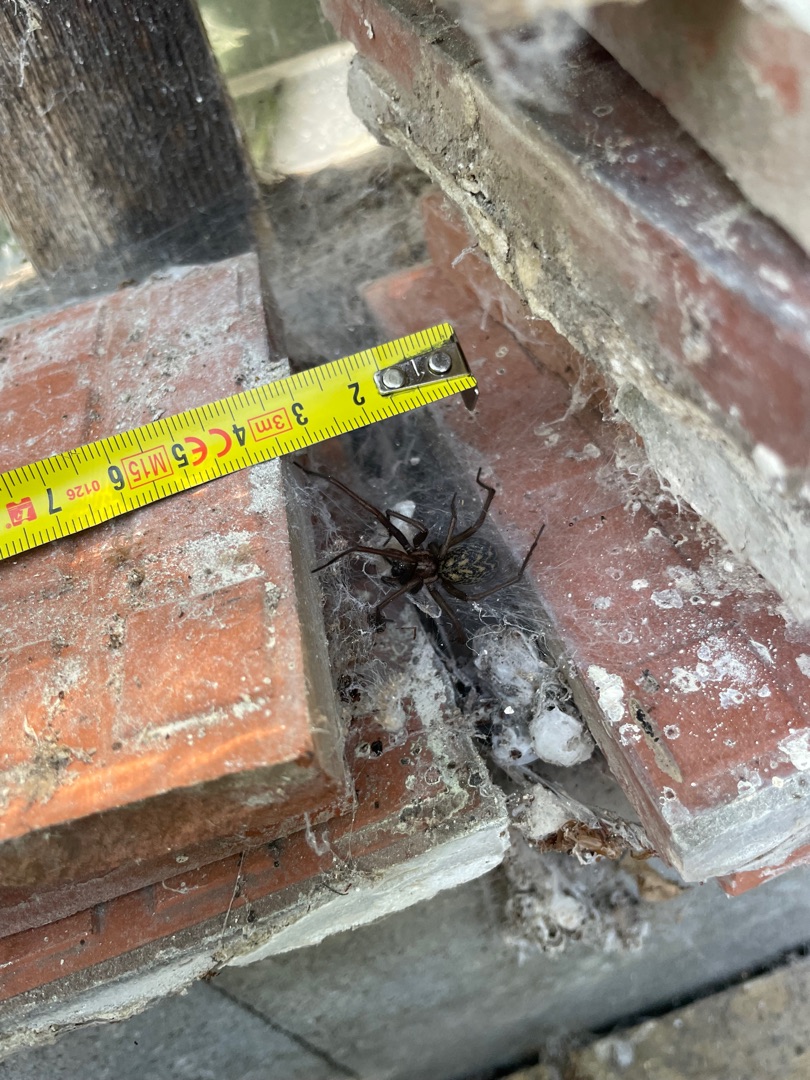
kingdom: Animalia
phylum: Arthropoda
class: Arachnida
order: Araneae
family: Agelenidae
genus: Eratigena
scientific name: Eratigena atrica
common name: Stor husedderkop
